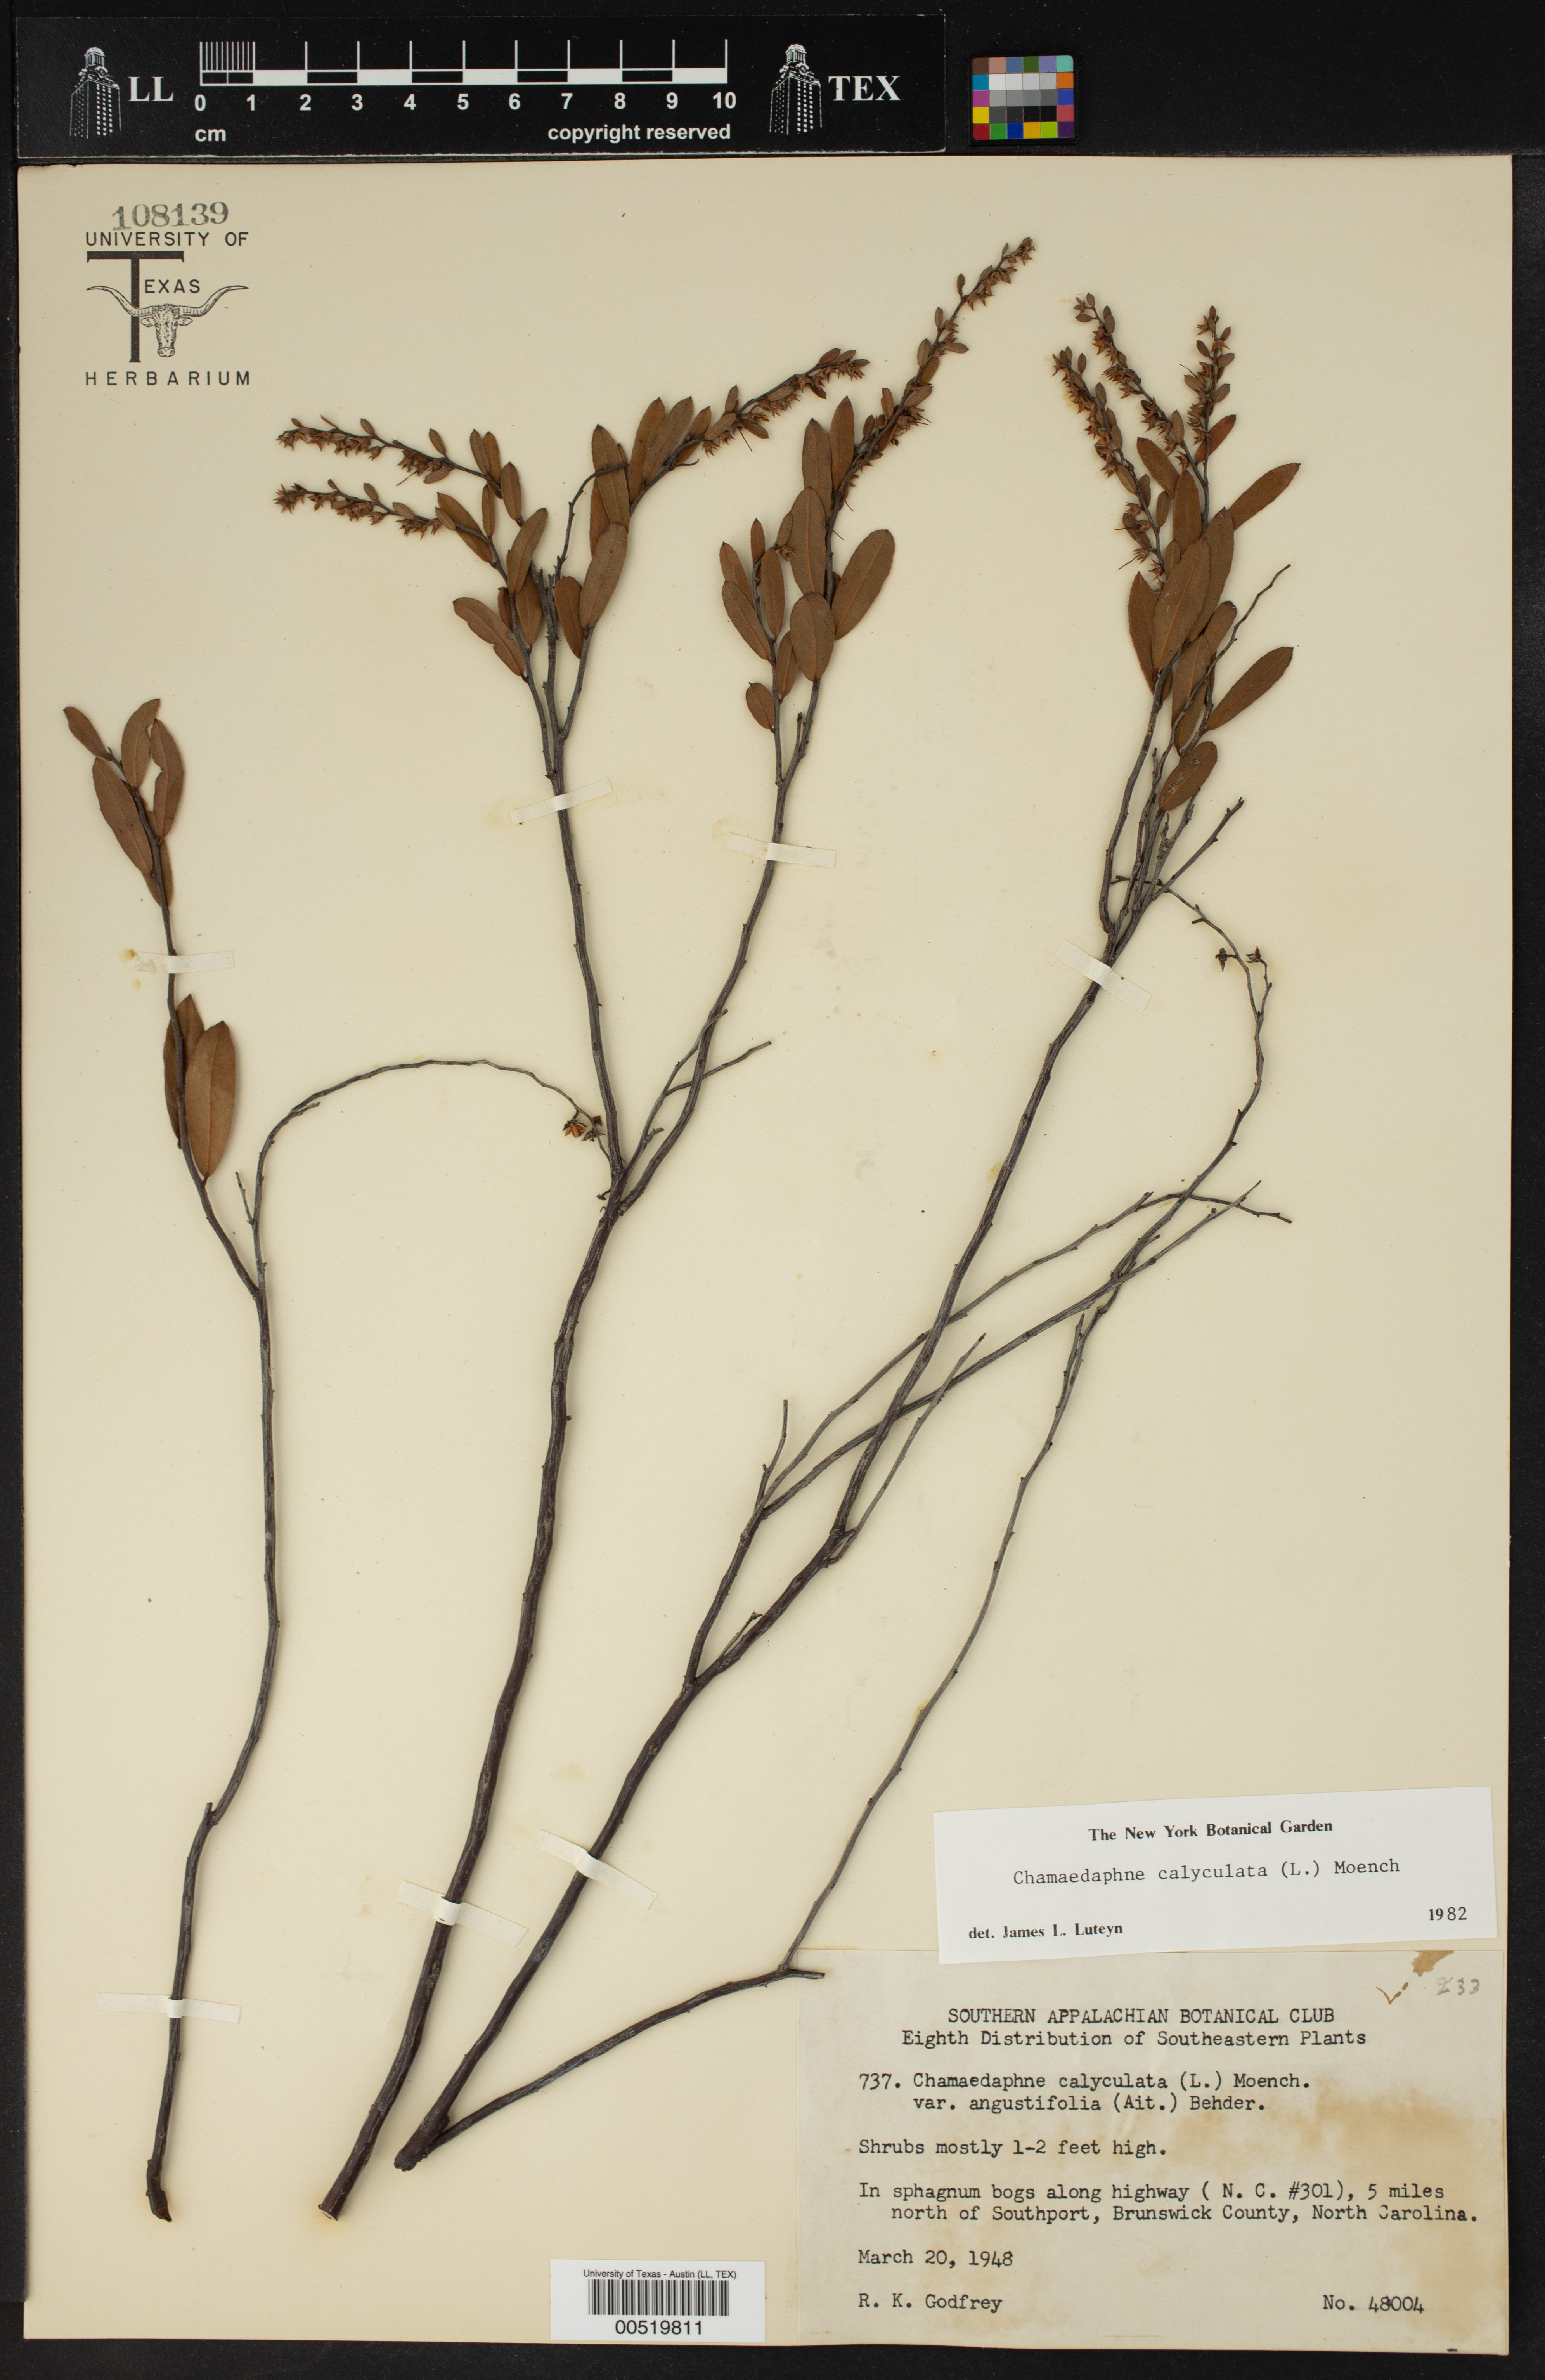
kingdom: Plantae
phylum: Tracheophyta
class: Magnoliopsida
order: Ericales
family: Ericaceae
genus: Chamaedaphne
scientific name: Chamaedaphne calyculata
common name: Leatherleaf
